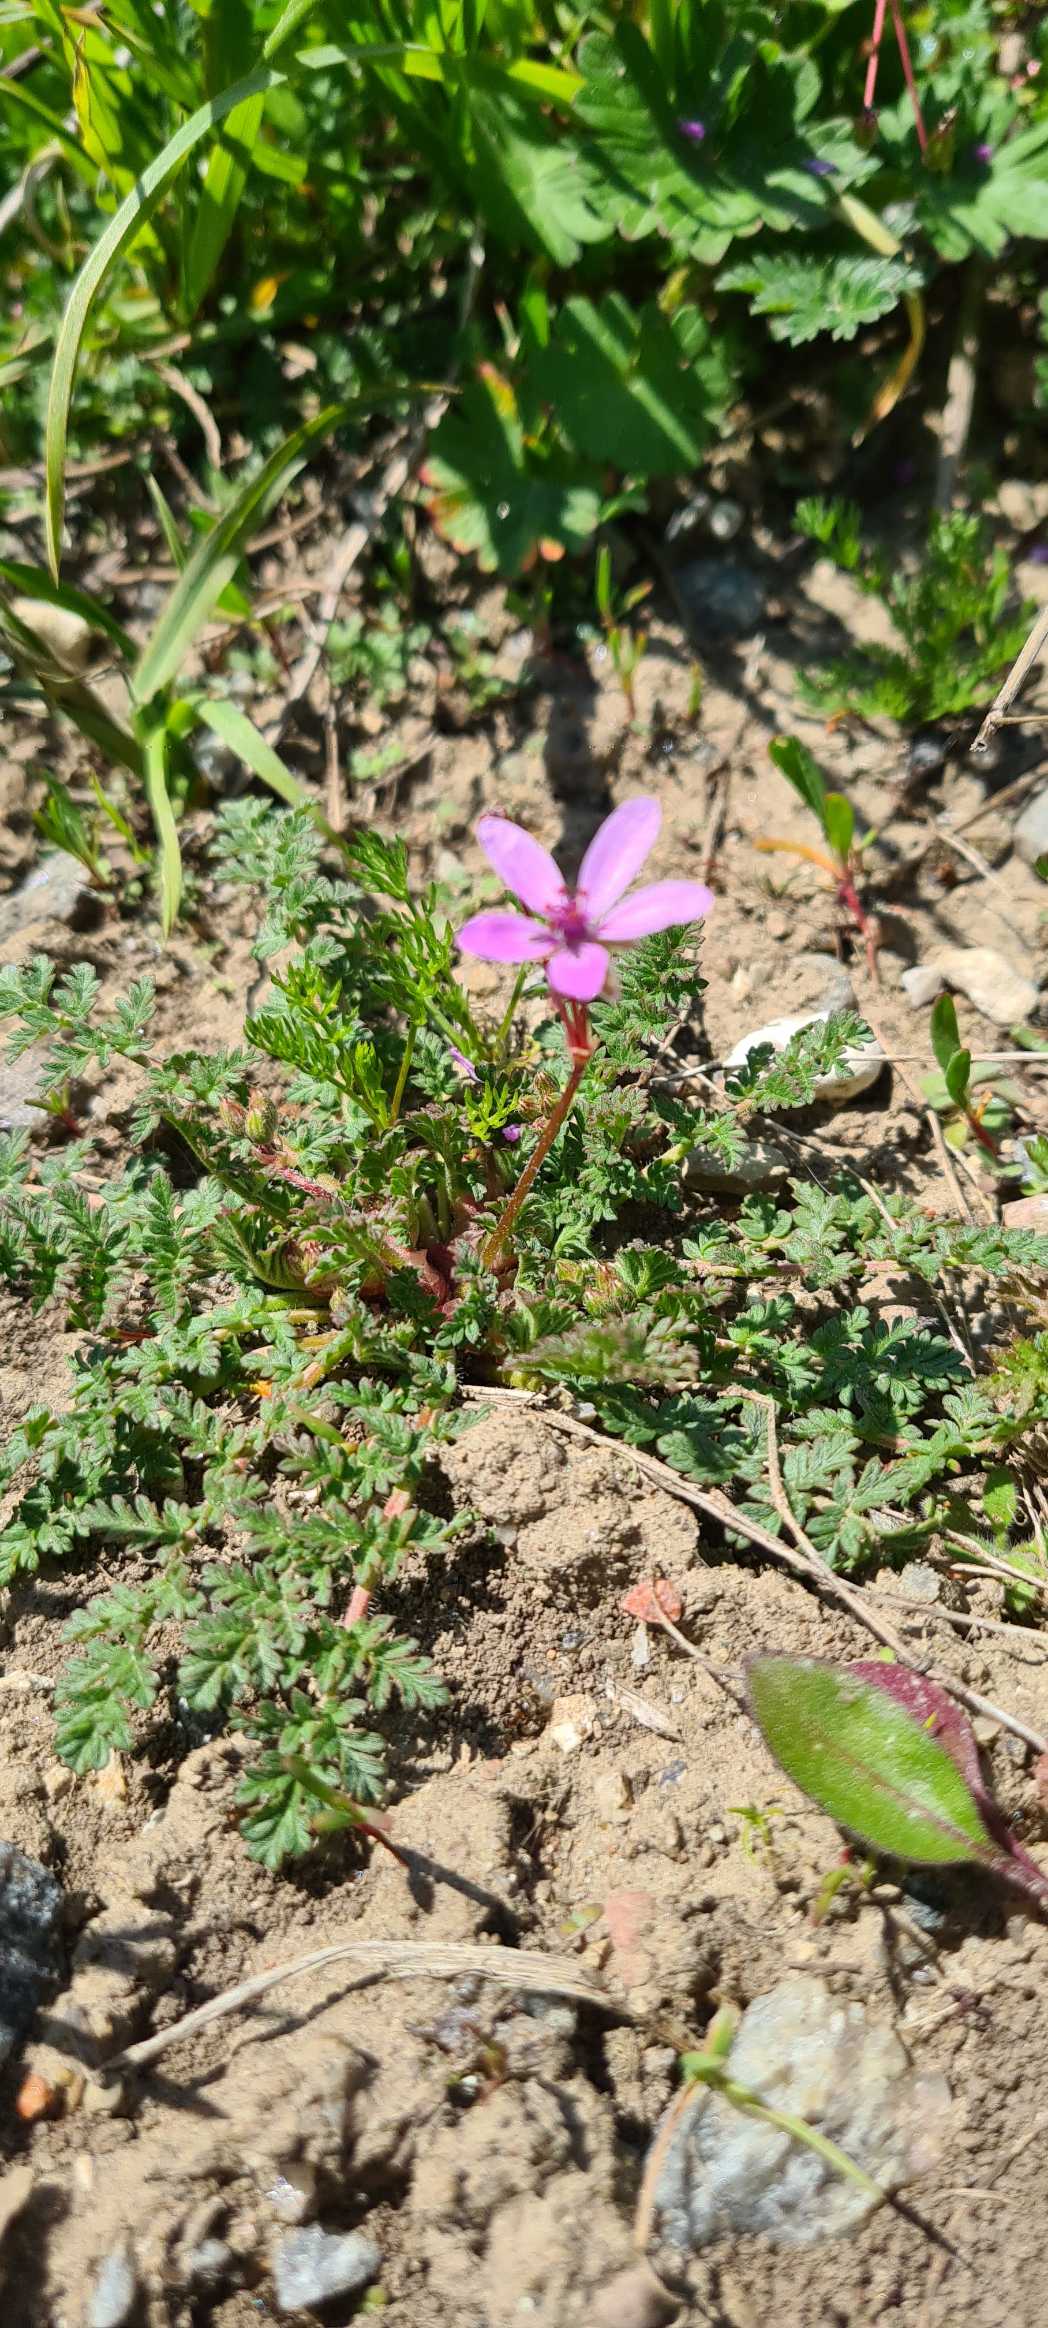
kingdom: Plantae
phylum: Tracheophyta
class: Magnoliopsida
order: Geraniales
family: Geraniaceae
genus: Erodium
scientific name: Erodium cicutarium
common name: Hejrenæb
